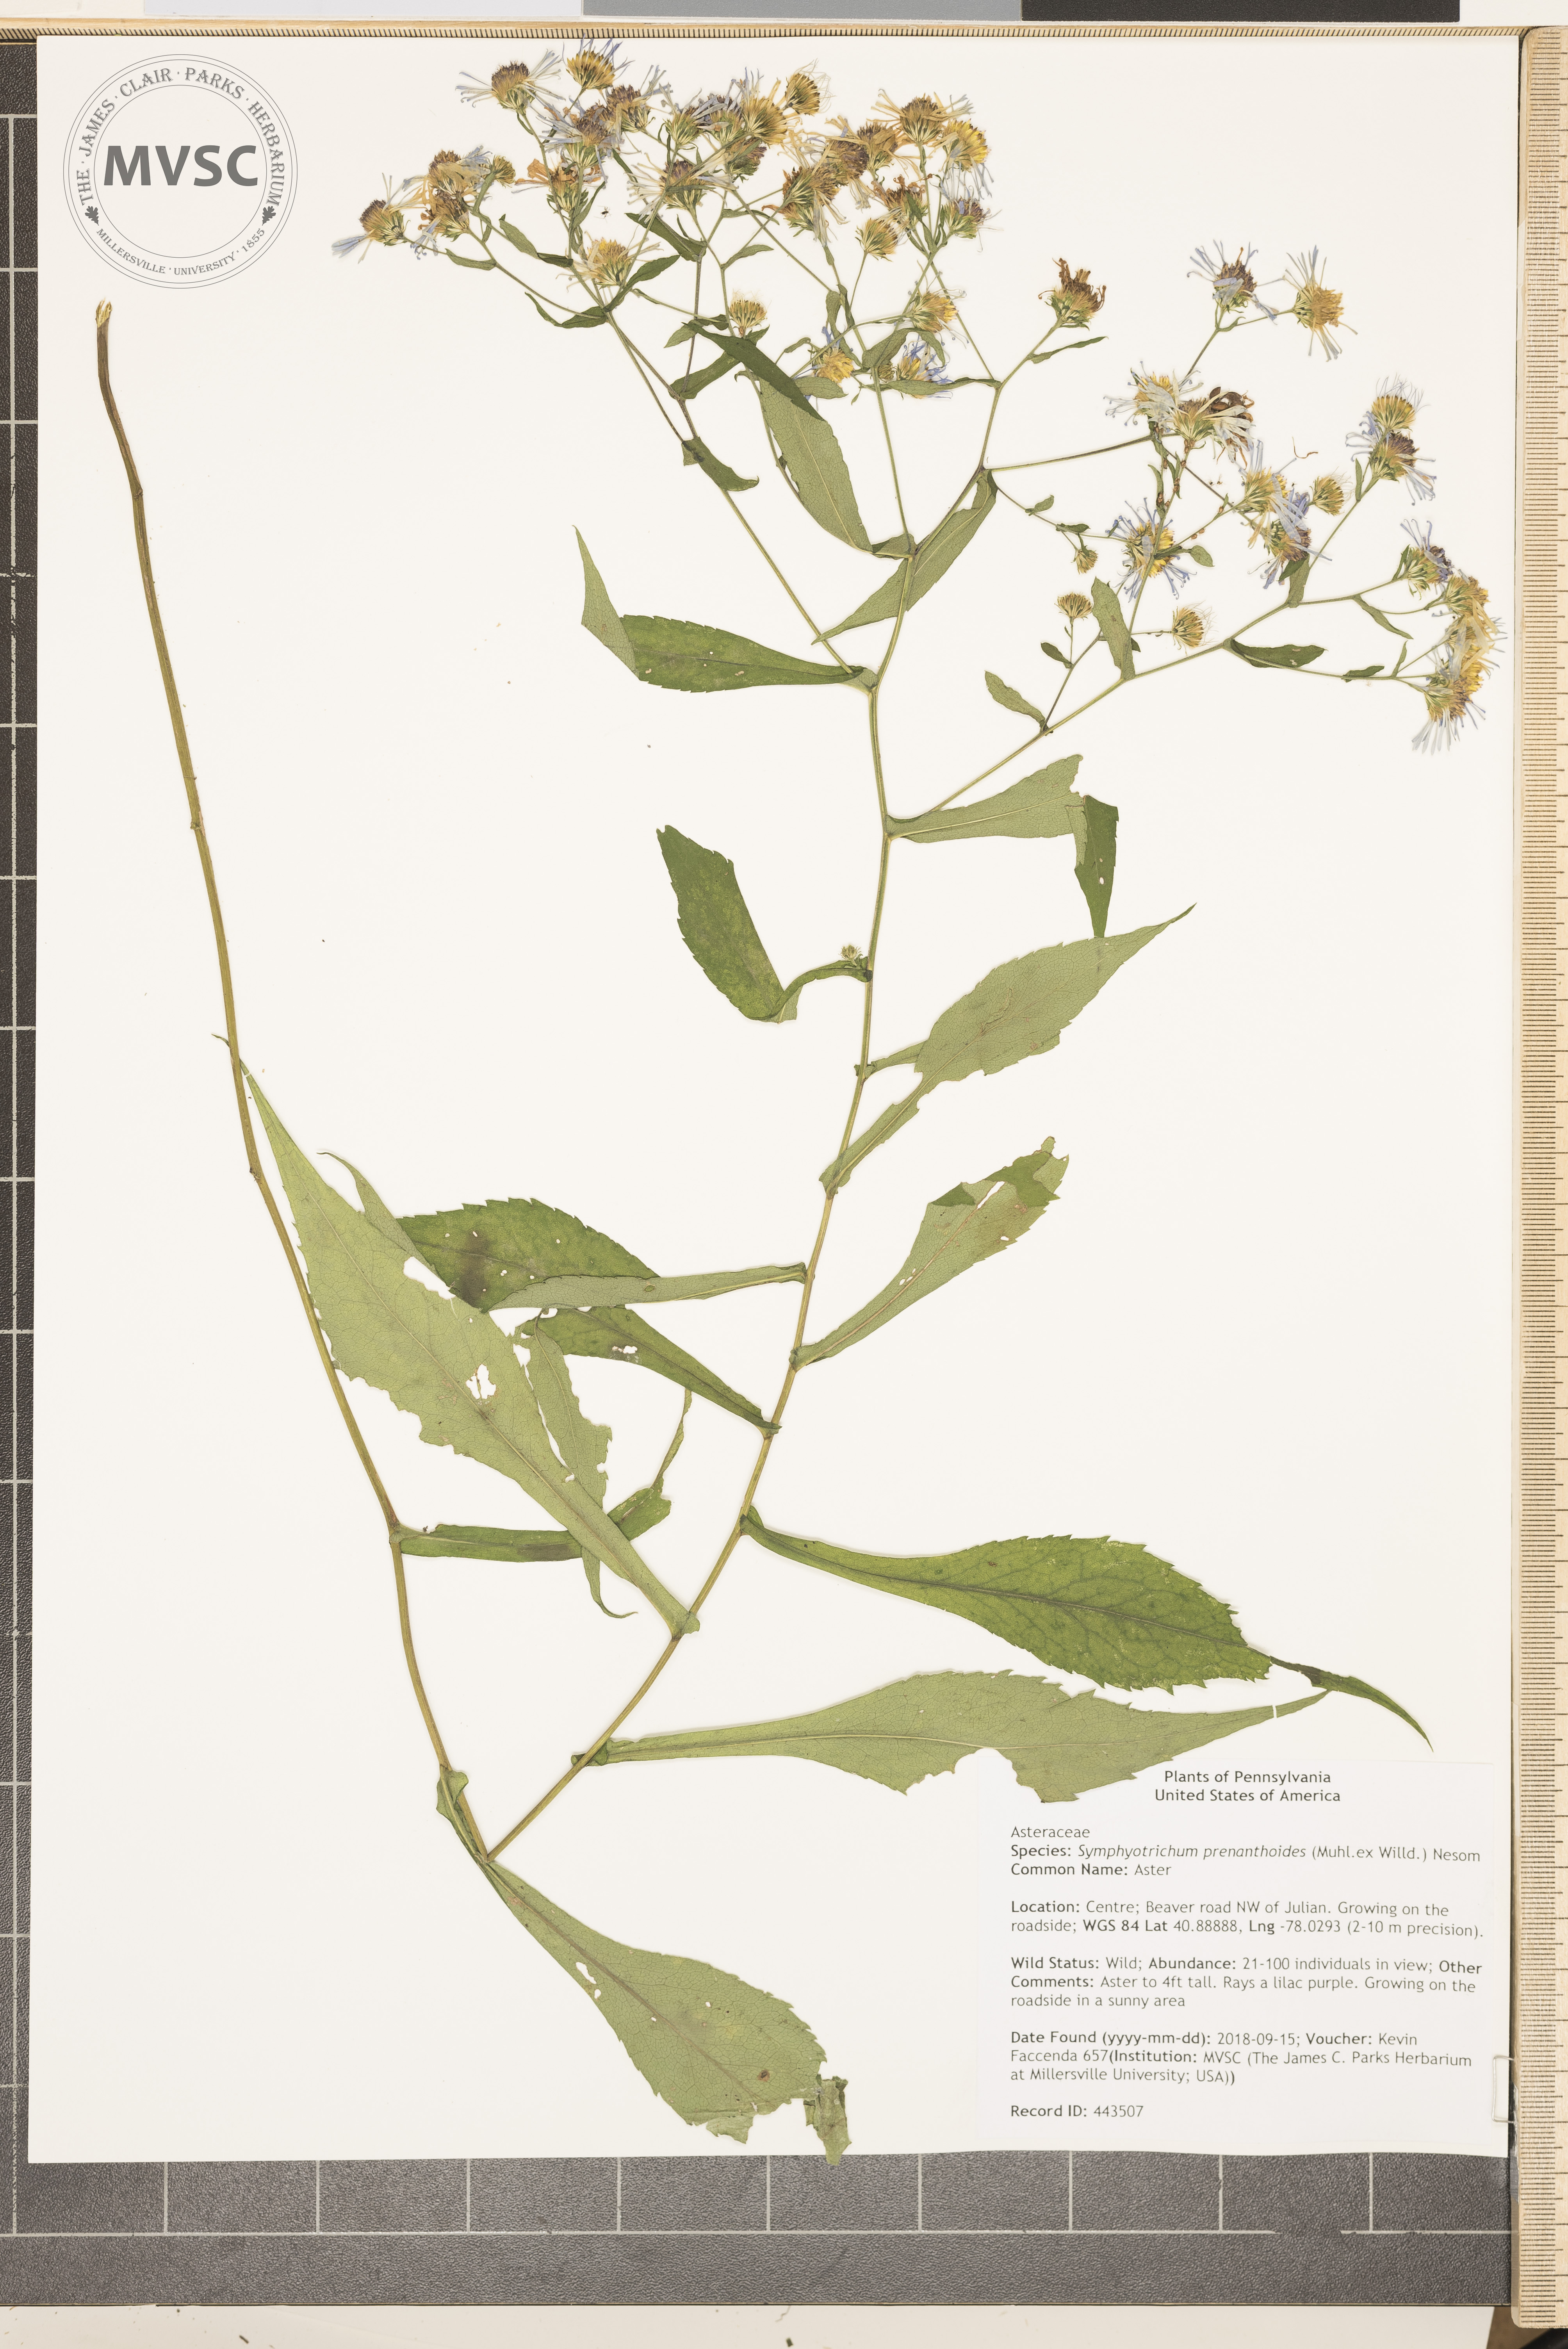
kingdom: Plantae
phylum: Tracheophyta
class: Magnoliopsida
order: Asterales
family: Asteraceae
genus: Symphyotrichum
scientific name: Symphyotrichum prenanthoides
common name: Aster
